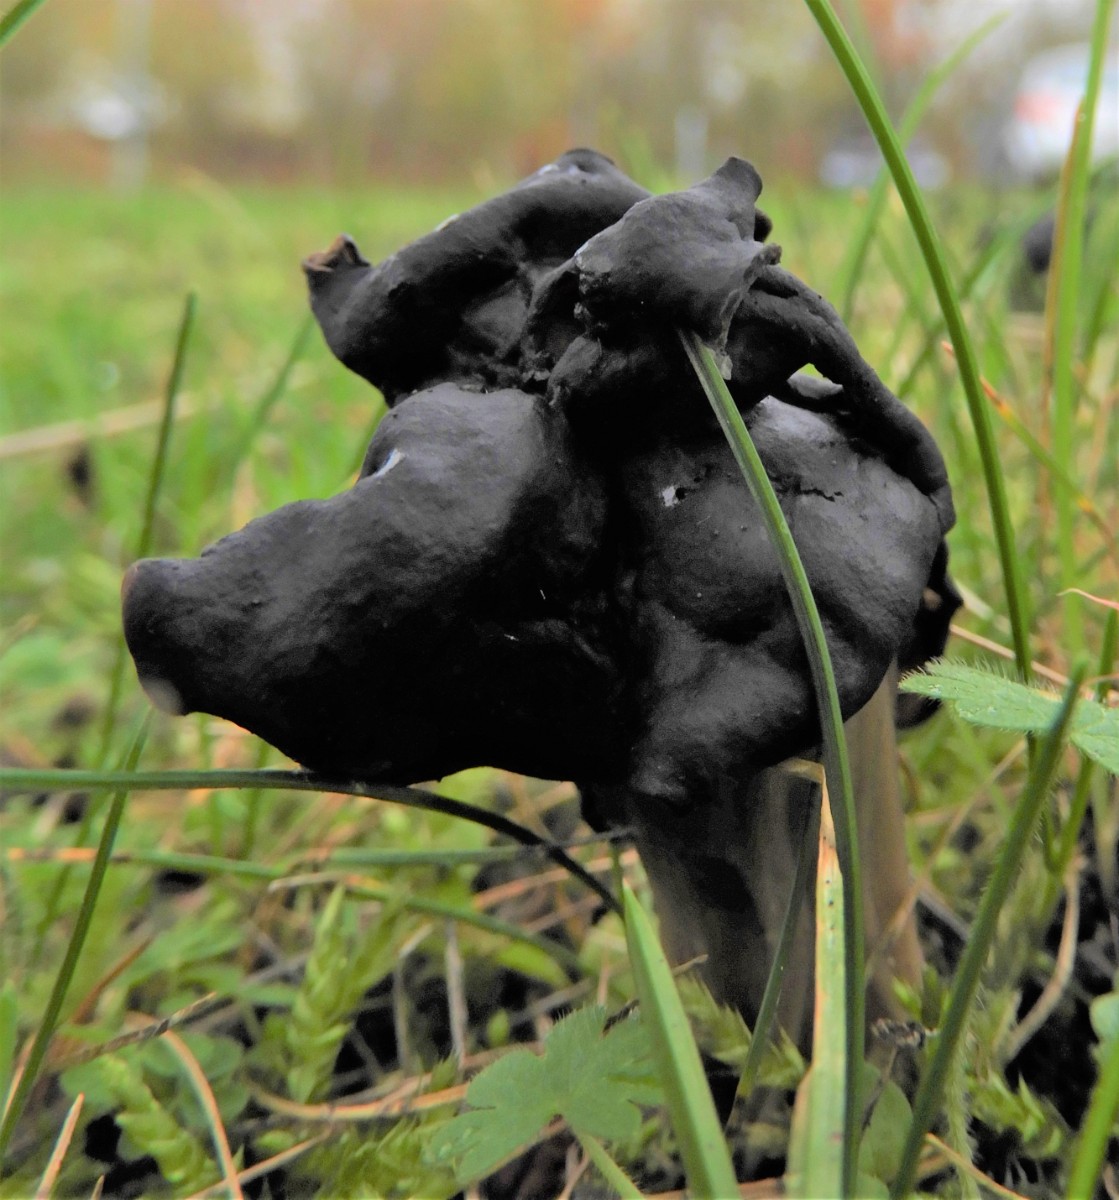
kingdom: Fungi
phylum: Ascomycota
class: Pezizomycetes
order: Pezizales
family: Helvellaceae
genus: Helvella
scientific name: Helvella lacunosa
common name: grubet foldhat
